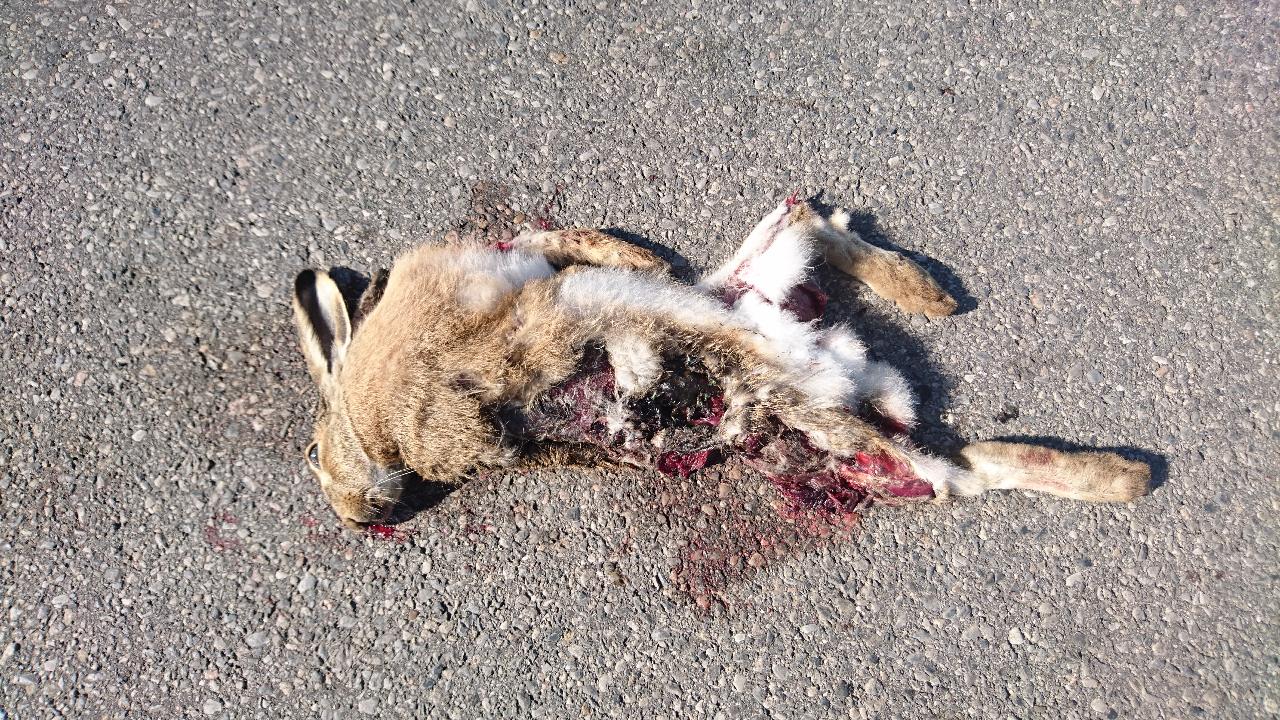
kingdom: Animalia
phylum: Chordata
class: Mammalia
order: Lagomorpha
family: Leporidae
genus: Lepus
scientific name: Lepus europaeus
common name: European hare
